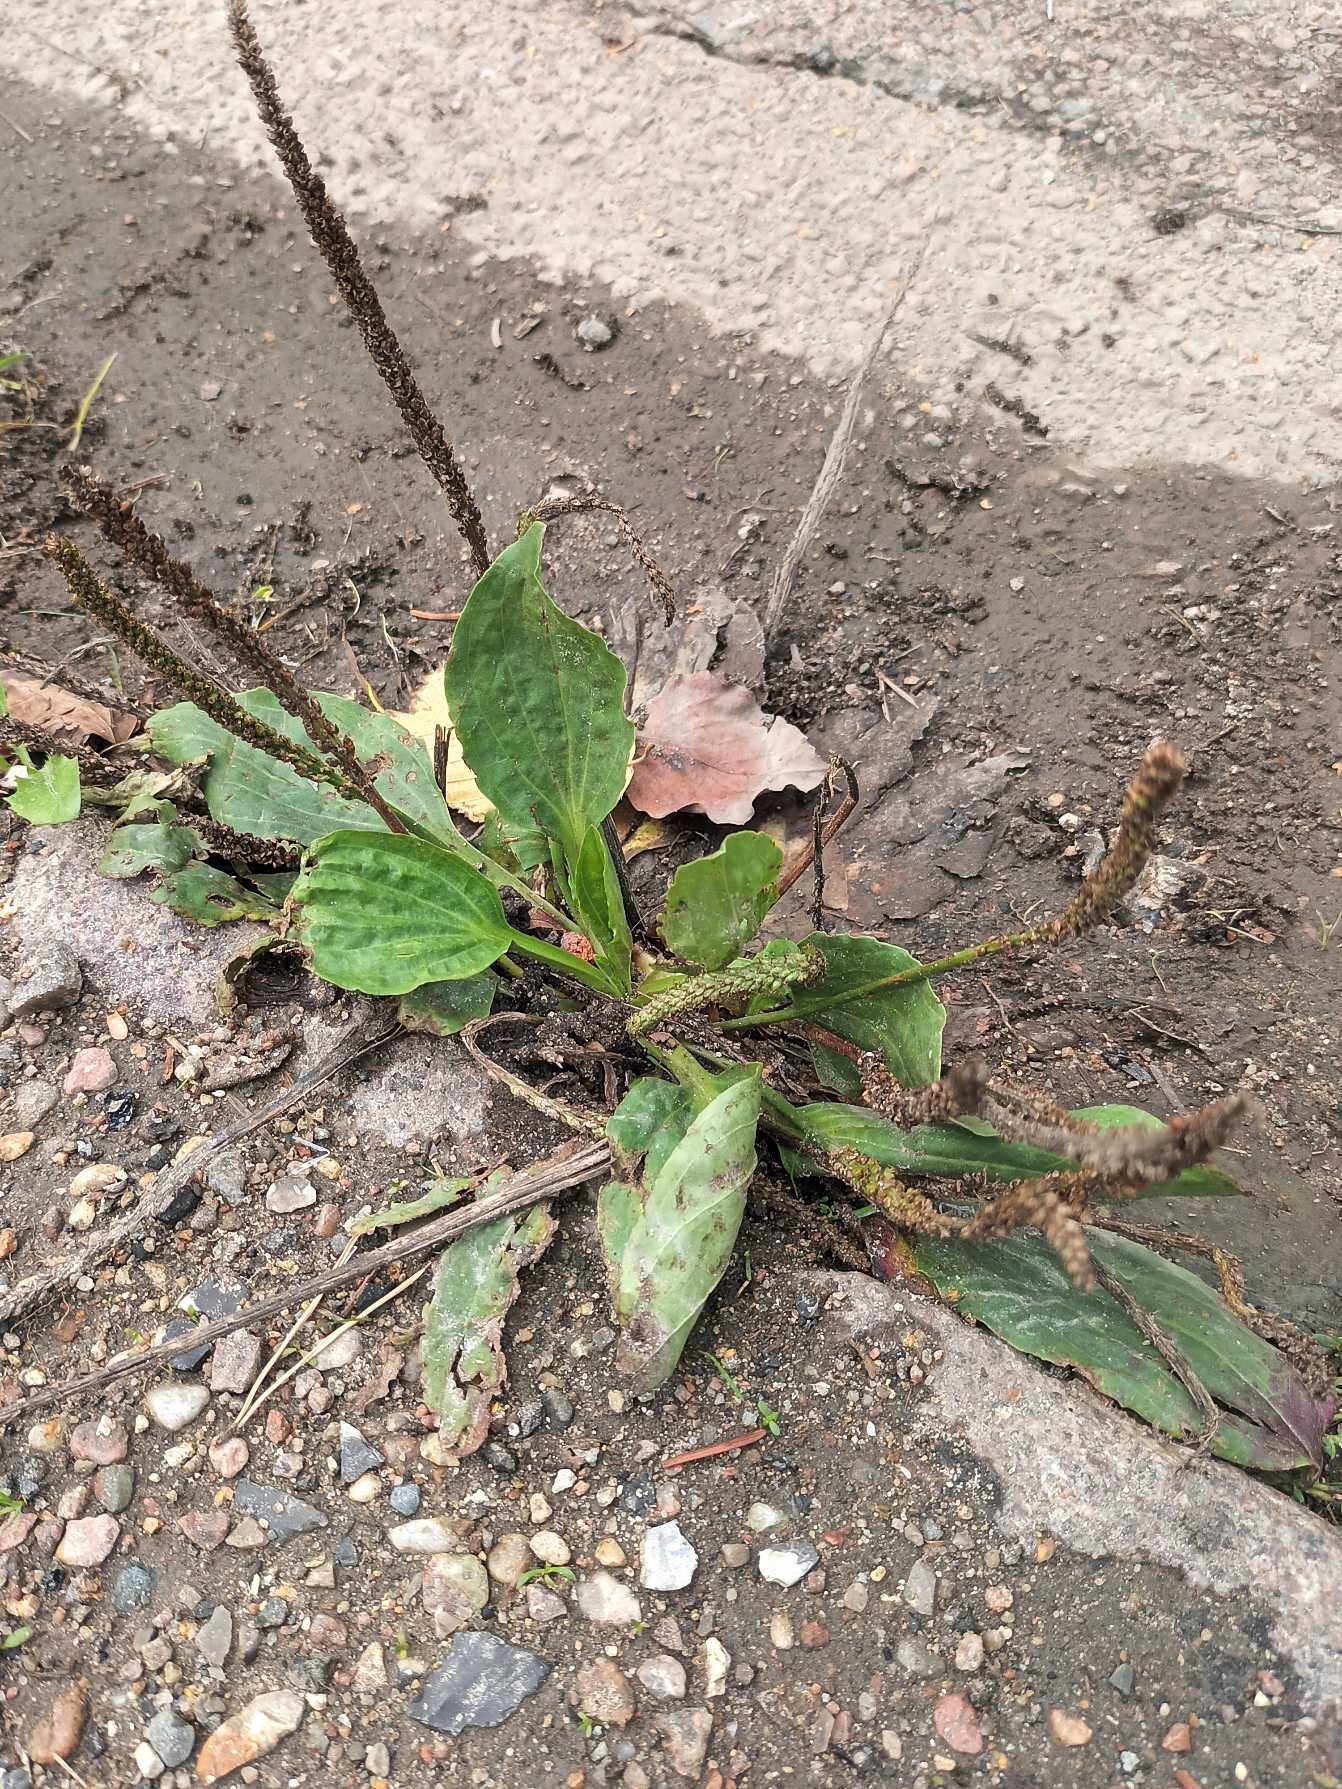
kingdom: Plantae
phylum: Tracheophyta
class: Magnoliopsida
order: Lamiales
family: Plantaginaceae
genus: Plantago
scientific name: Plantago major
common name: Glat vejbred
